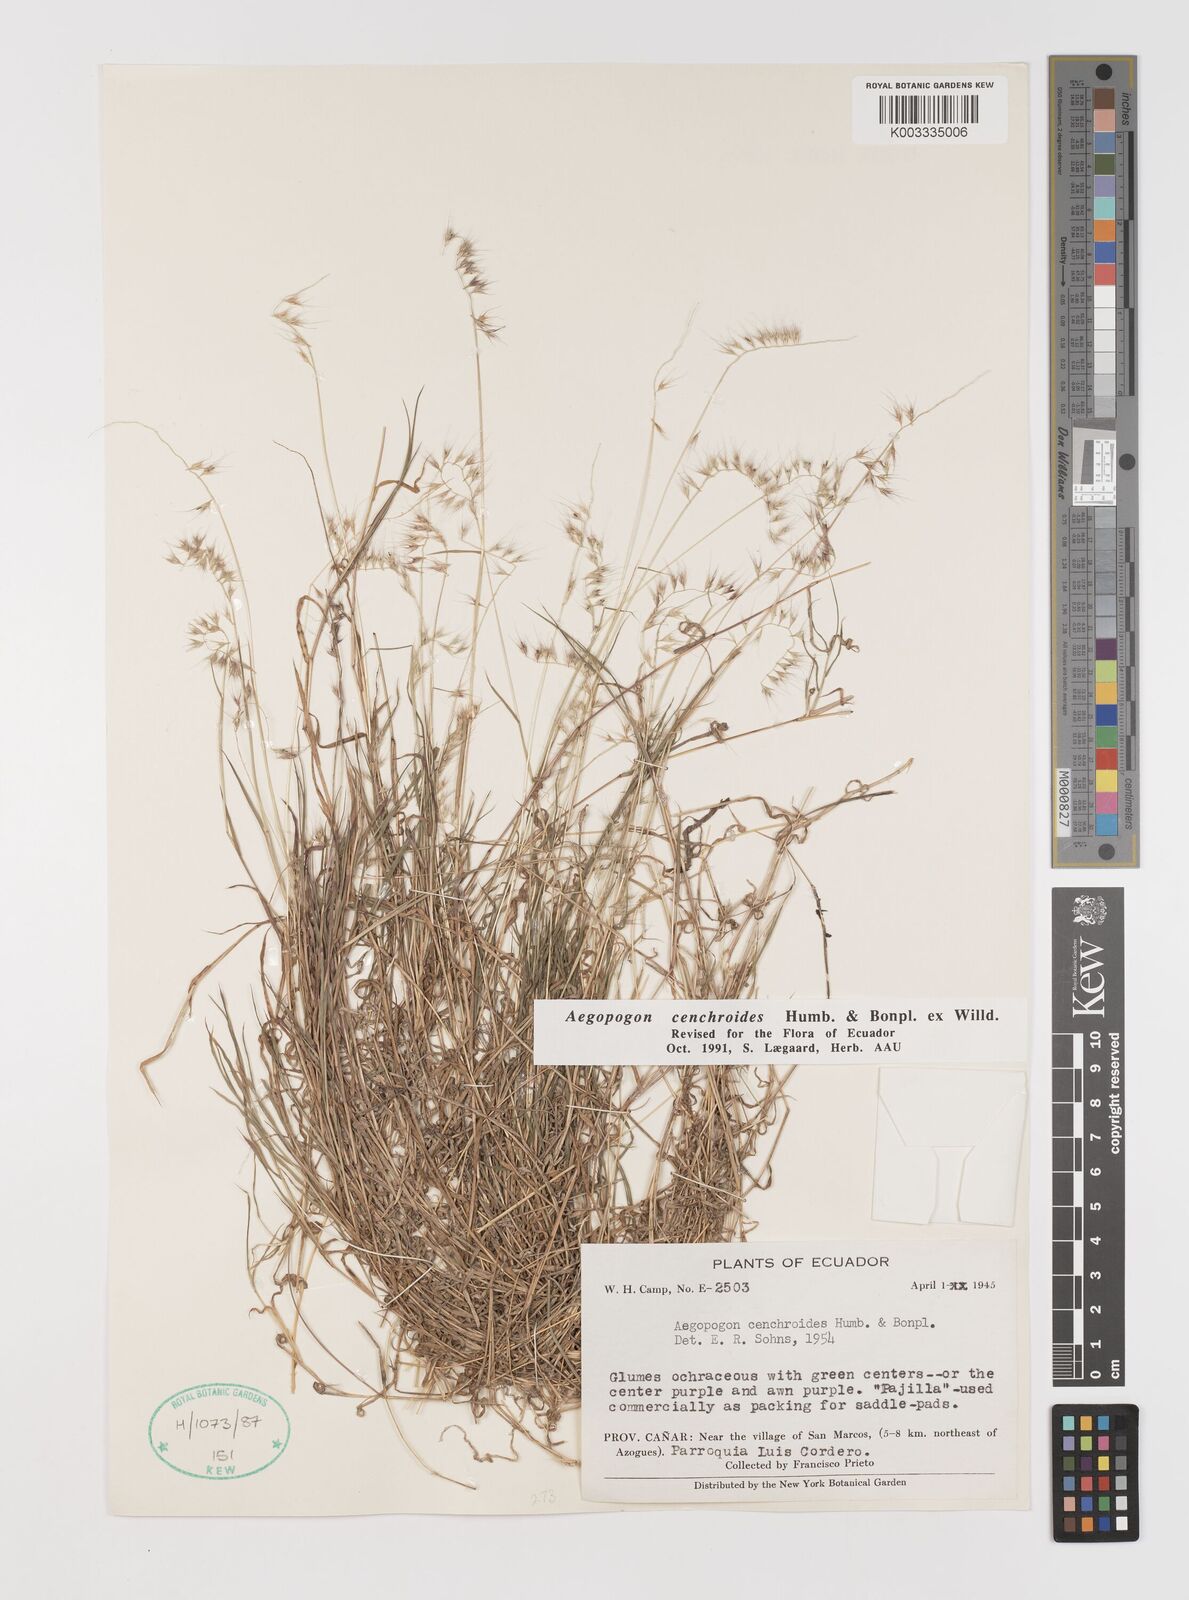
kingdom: Plantae
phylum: Tracheophyta
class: Liliopsida
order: Poales
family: Poaceae
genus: Muhlenbergia
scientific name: Muhlenbergia cenchroides
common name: Relaxgrass
